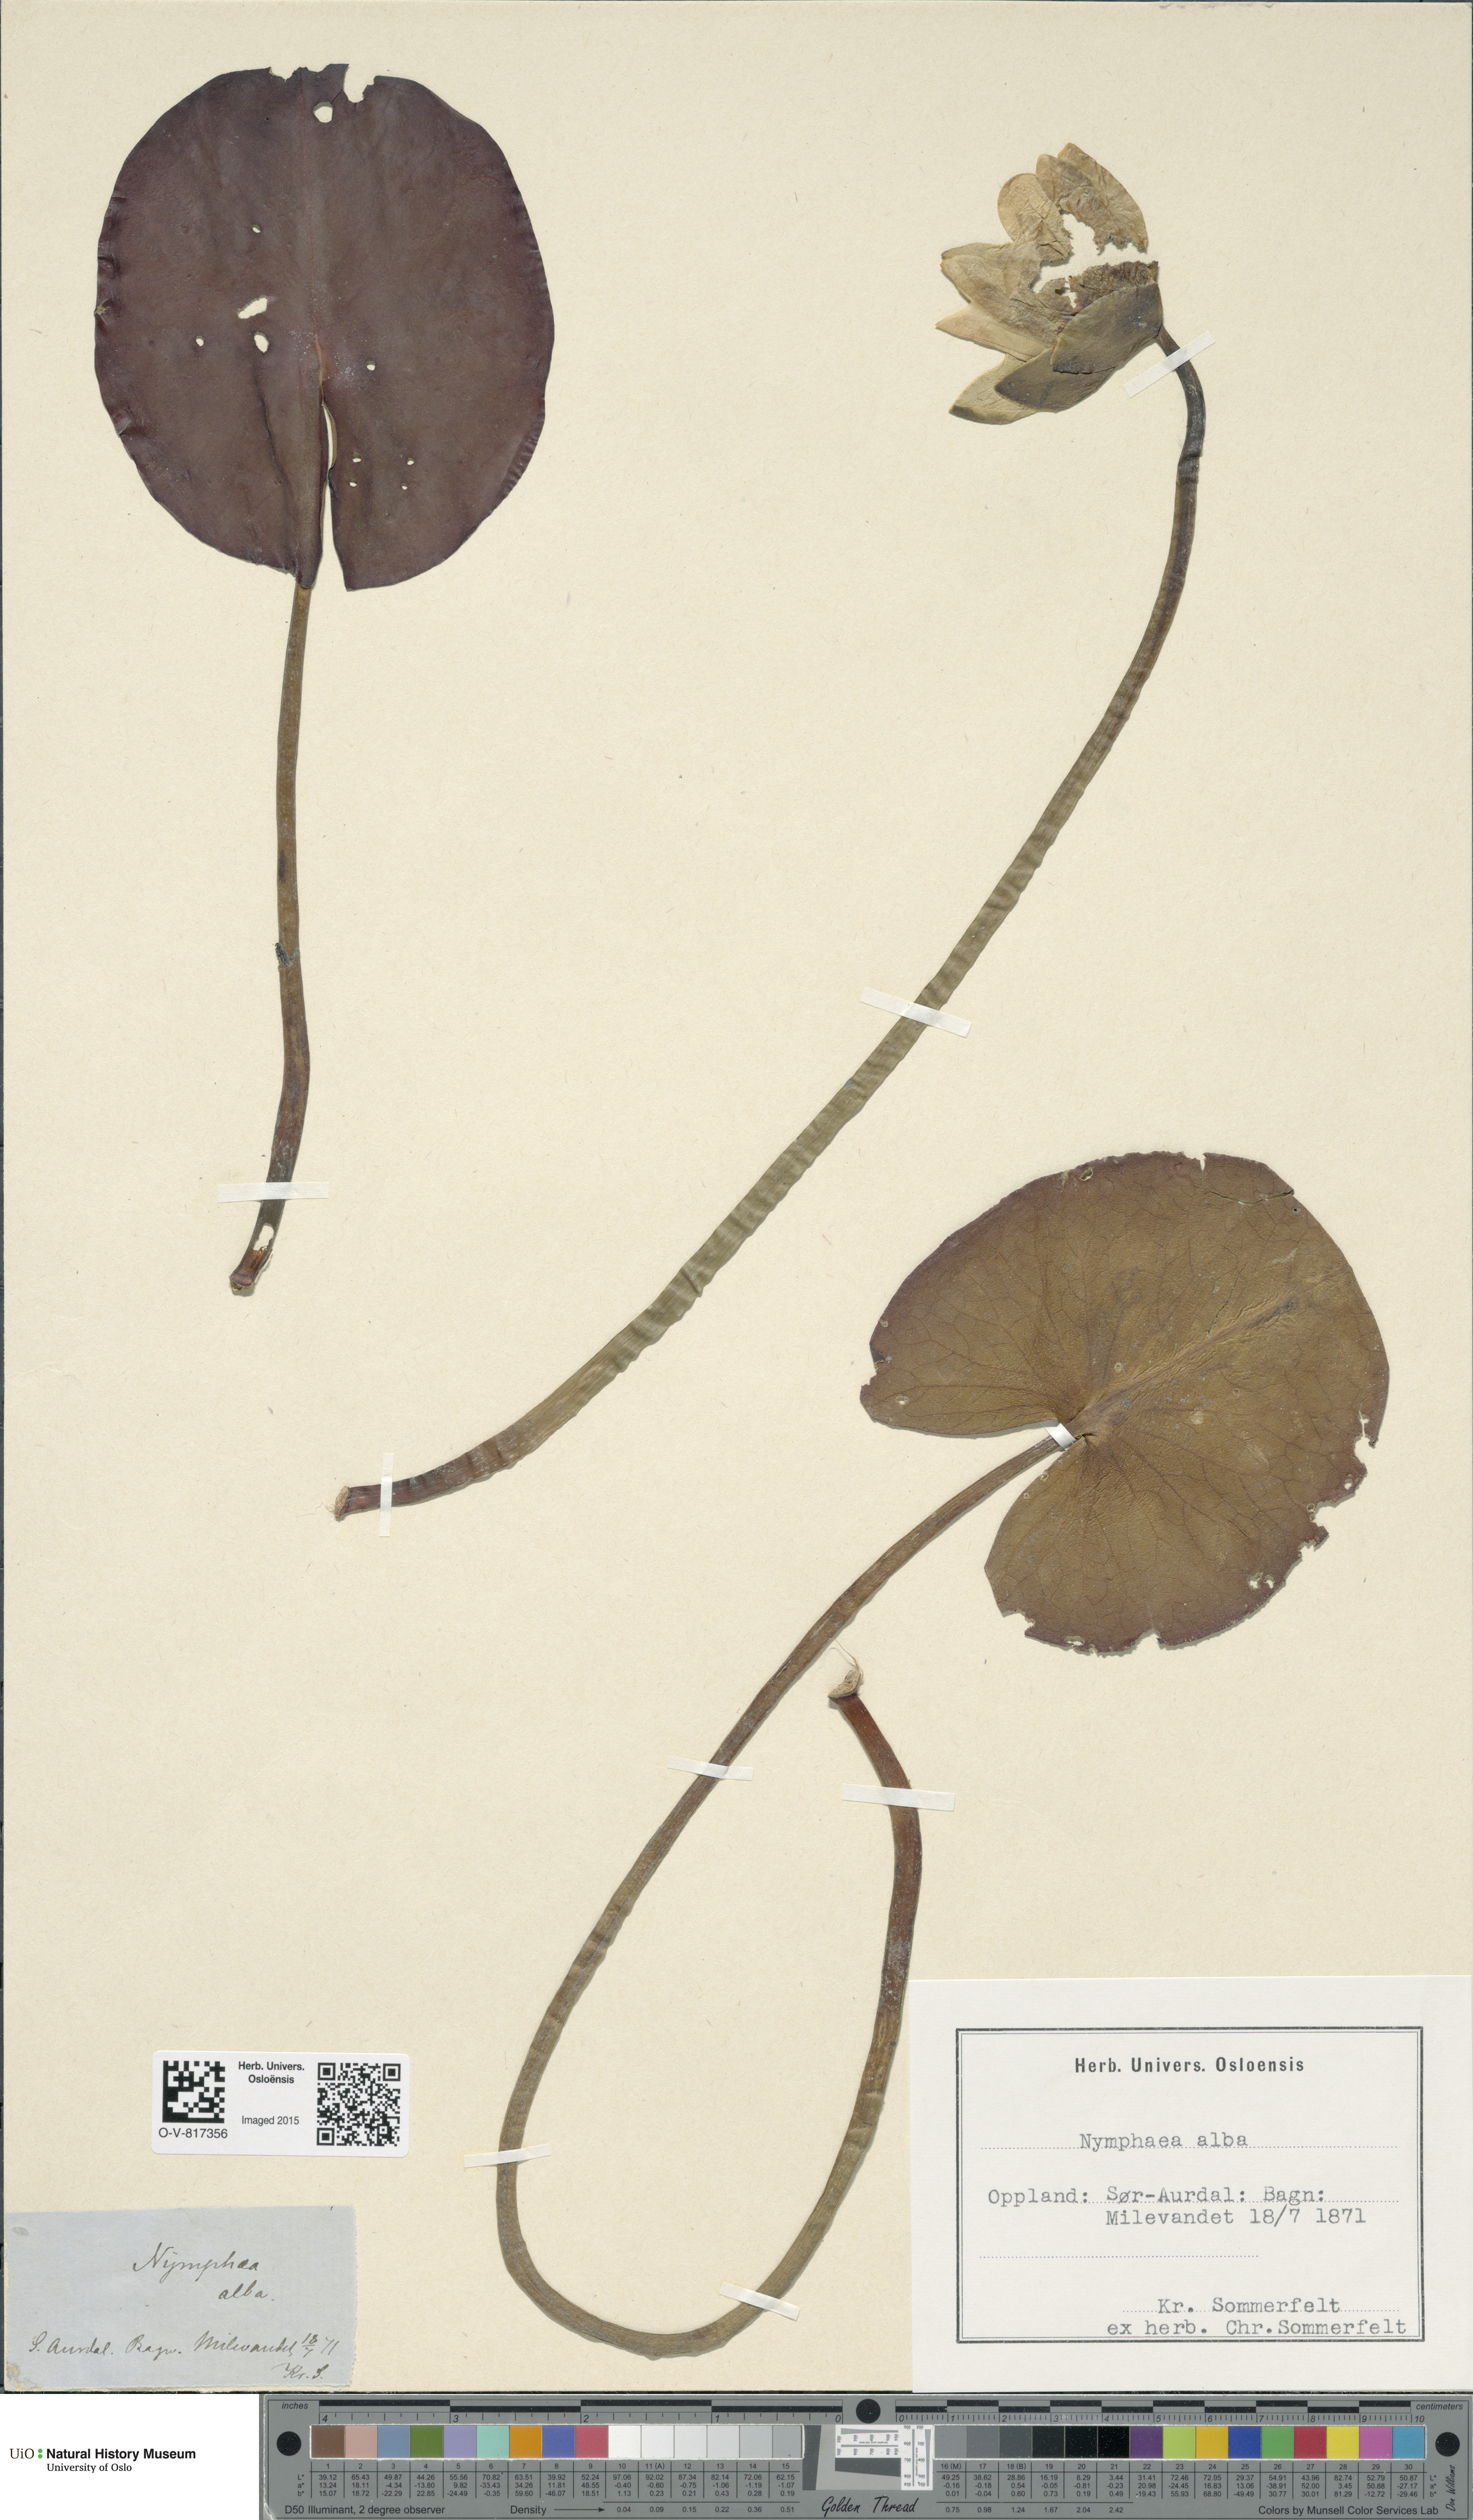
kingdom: Plantae
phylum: Tracheophyta
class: Magnoliopsida
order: Nymphaeales
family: Nymphaeaceae
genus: Nymphaea
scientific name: Nymphaea alba
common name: White water-lily
